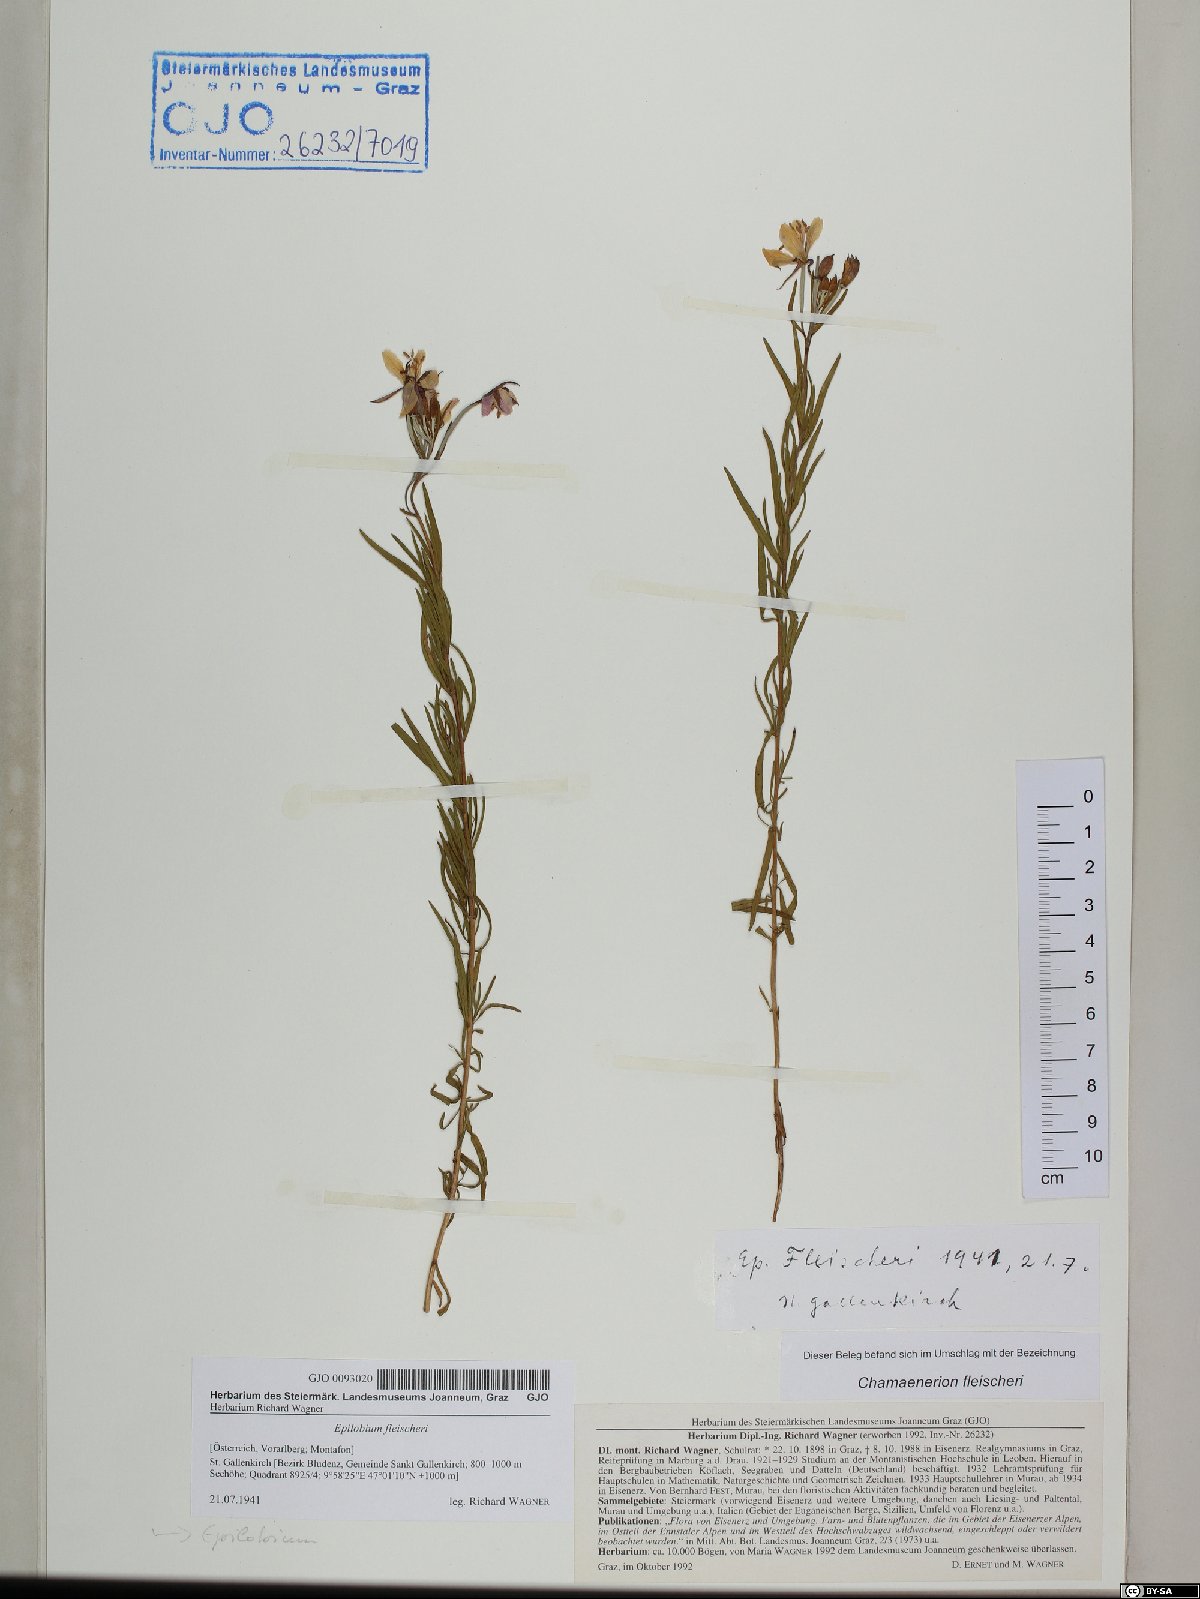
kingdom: Plantae
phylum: Tracheophyta
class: Magnoliopsida
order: Myrtales
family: Onagraceae
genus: Chamaenerion
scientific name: Chamaenerion fleischeri
